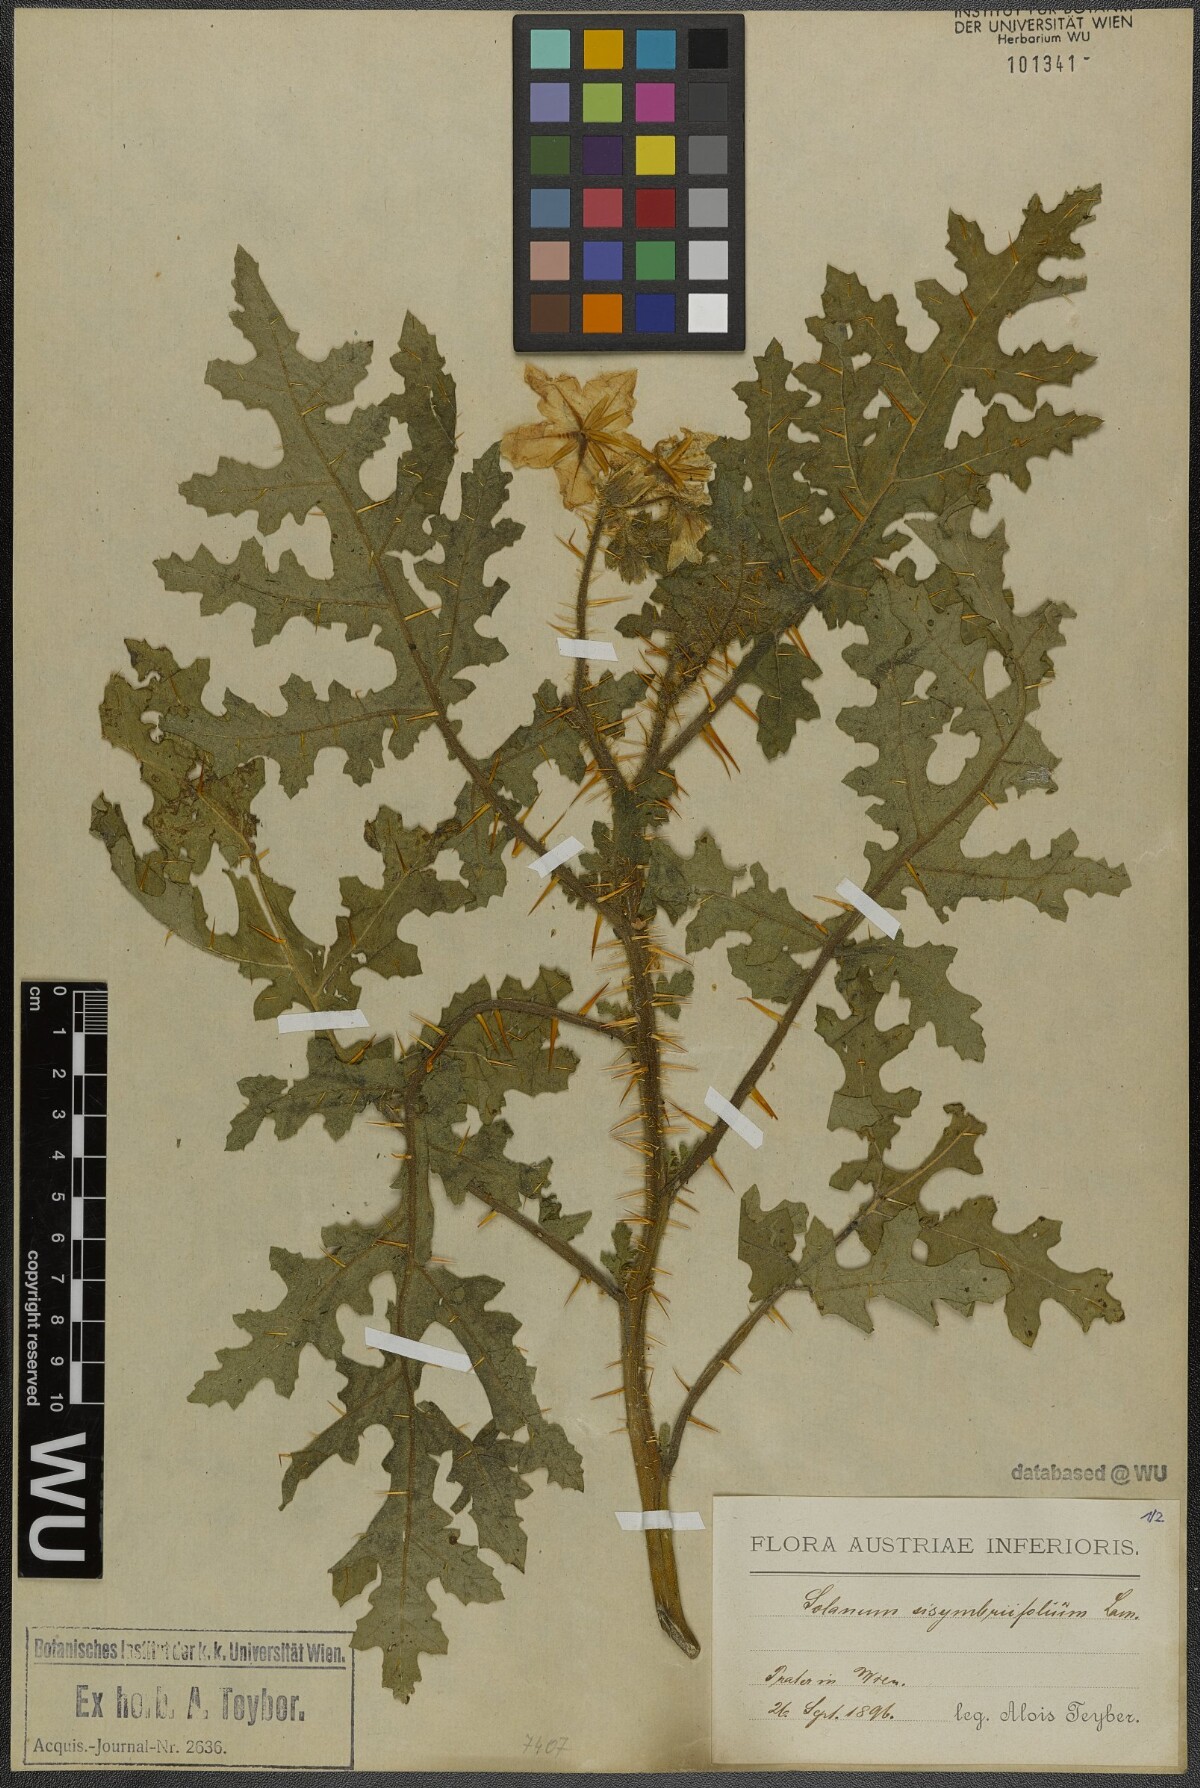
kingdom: Plantae
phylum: Tracheophyta
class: Magnoliopsida
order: Solanales
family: Solanaceae
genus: Solanum
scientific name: Solanum sisymbriifolium
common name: Red buffalo-bur
